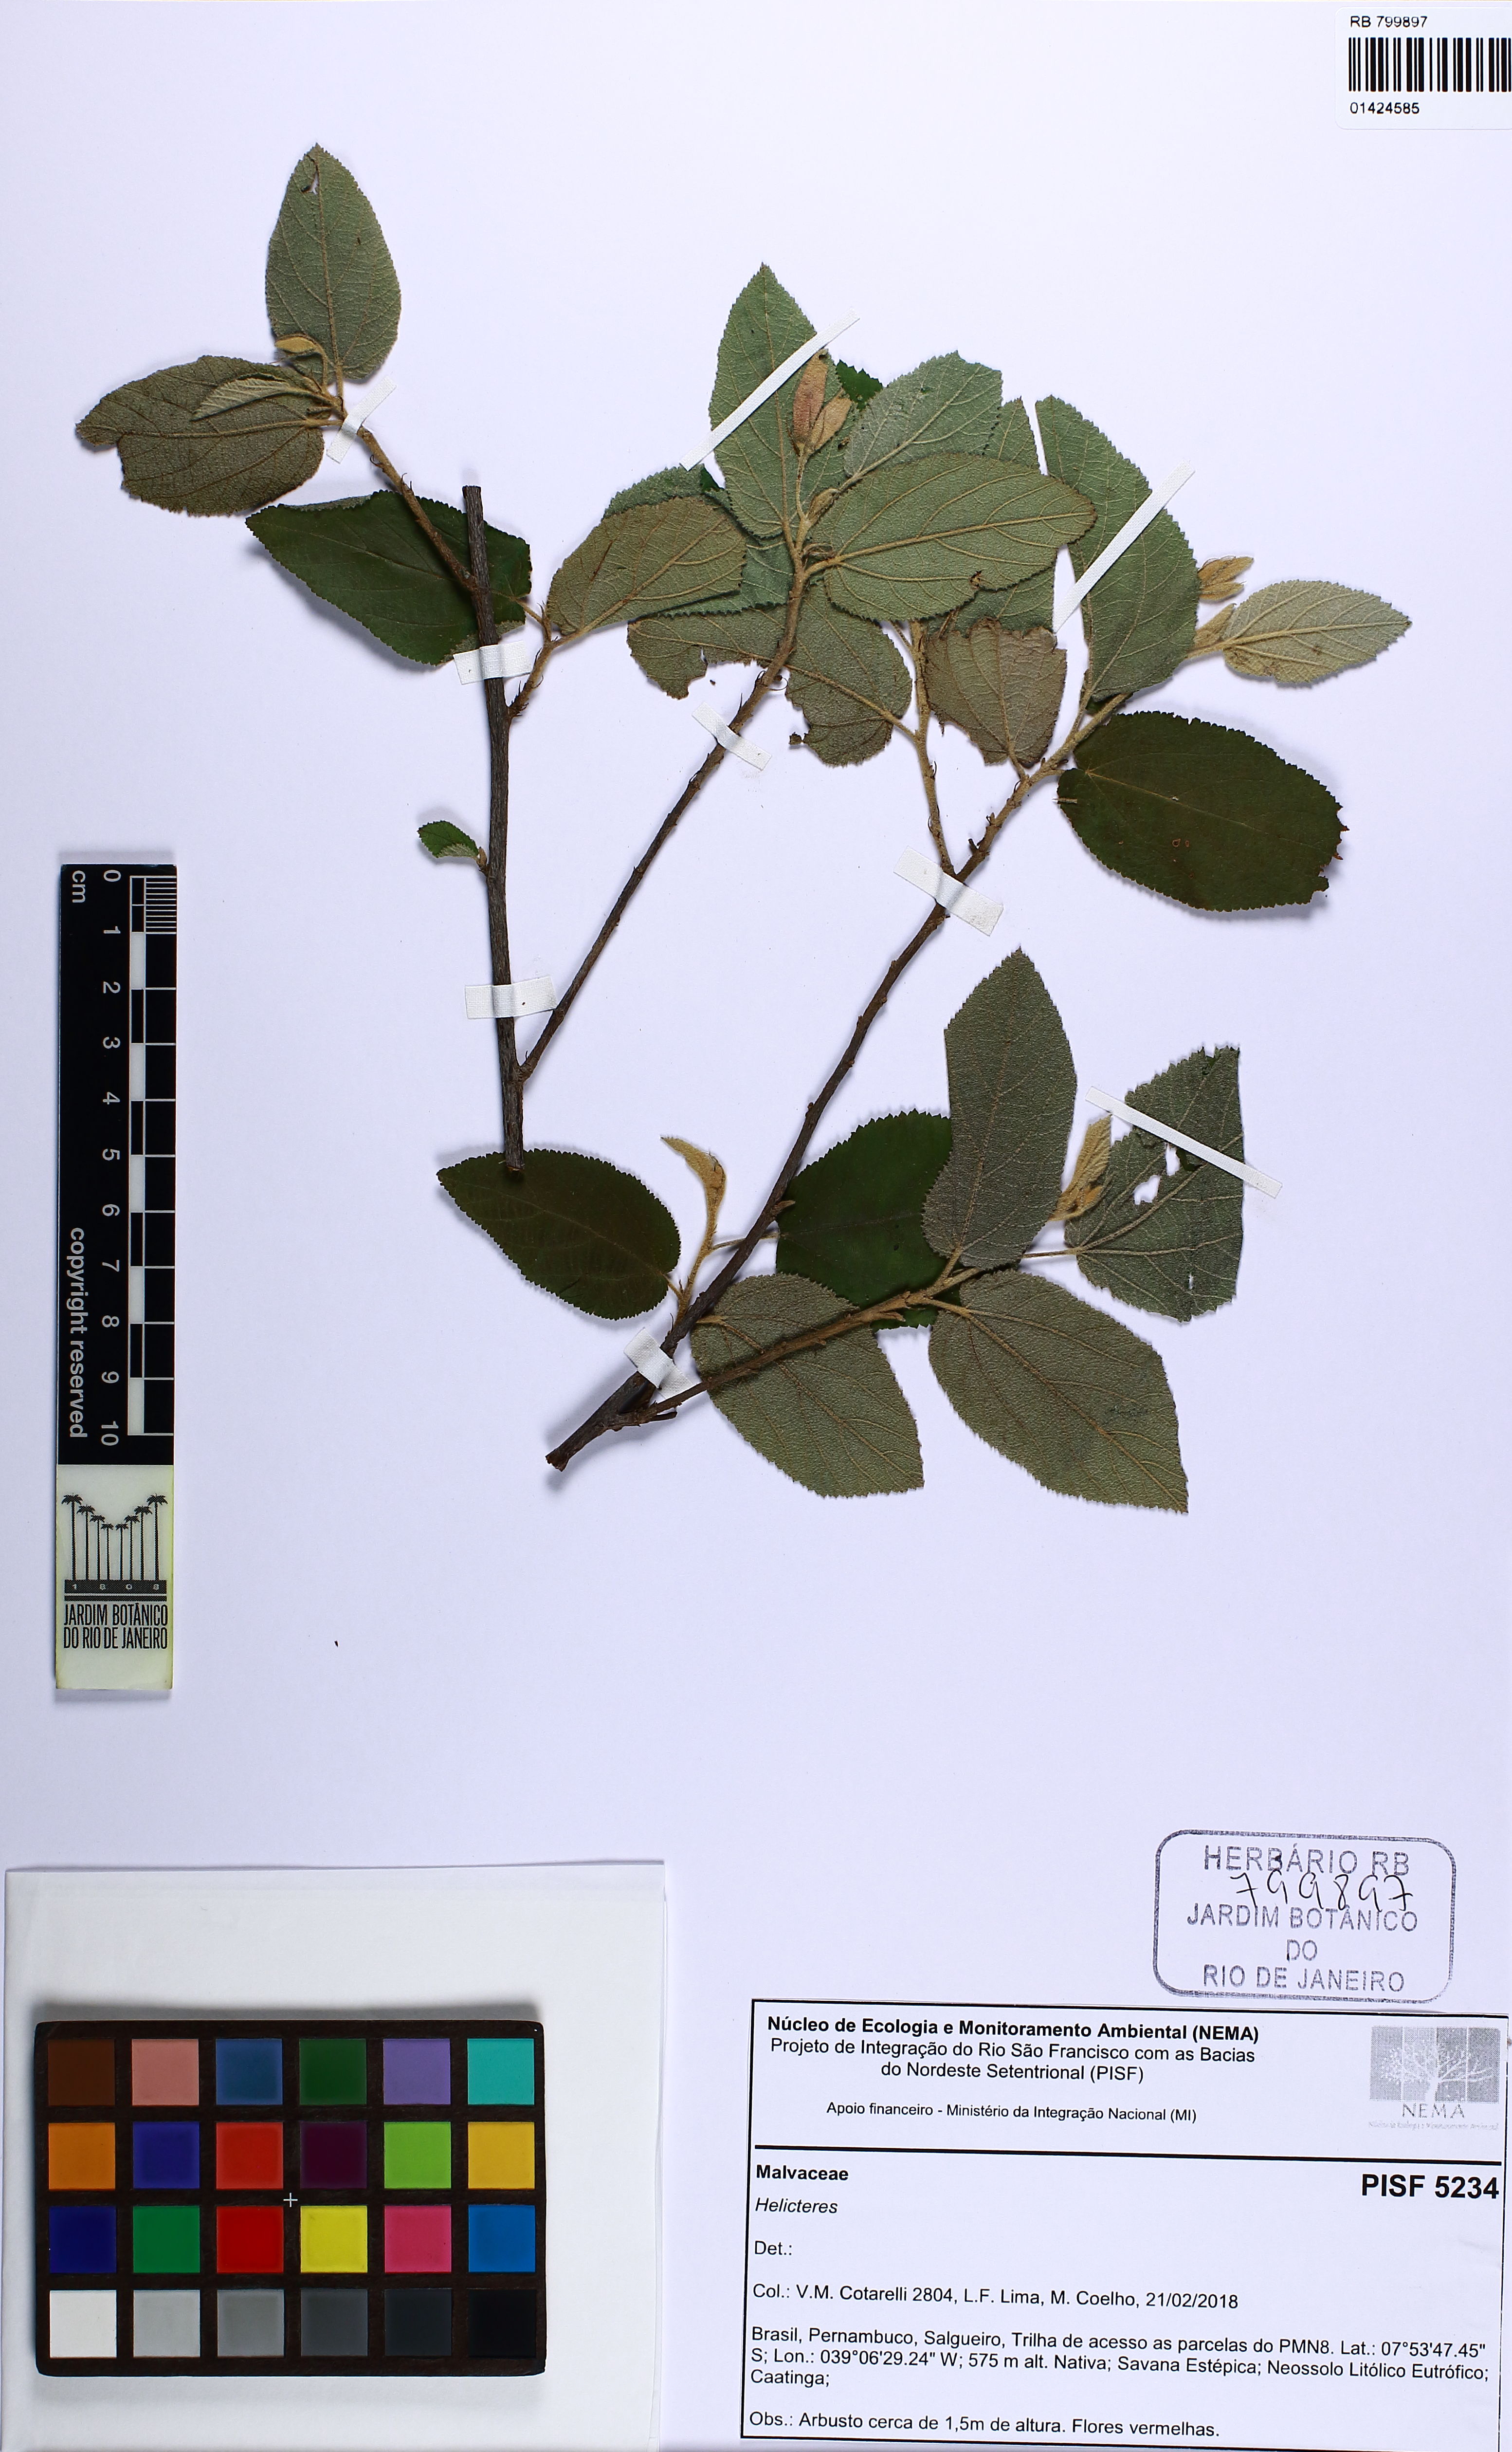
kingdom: Plantae
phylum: Tracheophyta
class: Magnoliopsida
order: Malvales
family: Malvaceae
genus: Helicteres
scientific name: Helicteres
